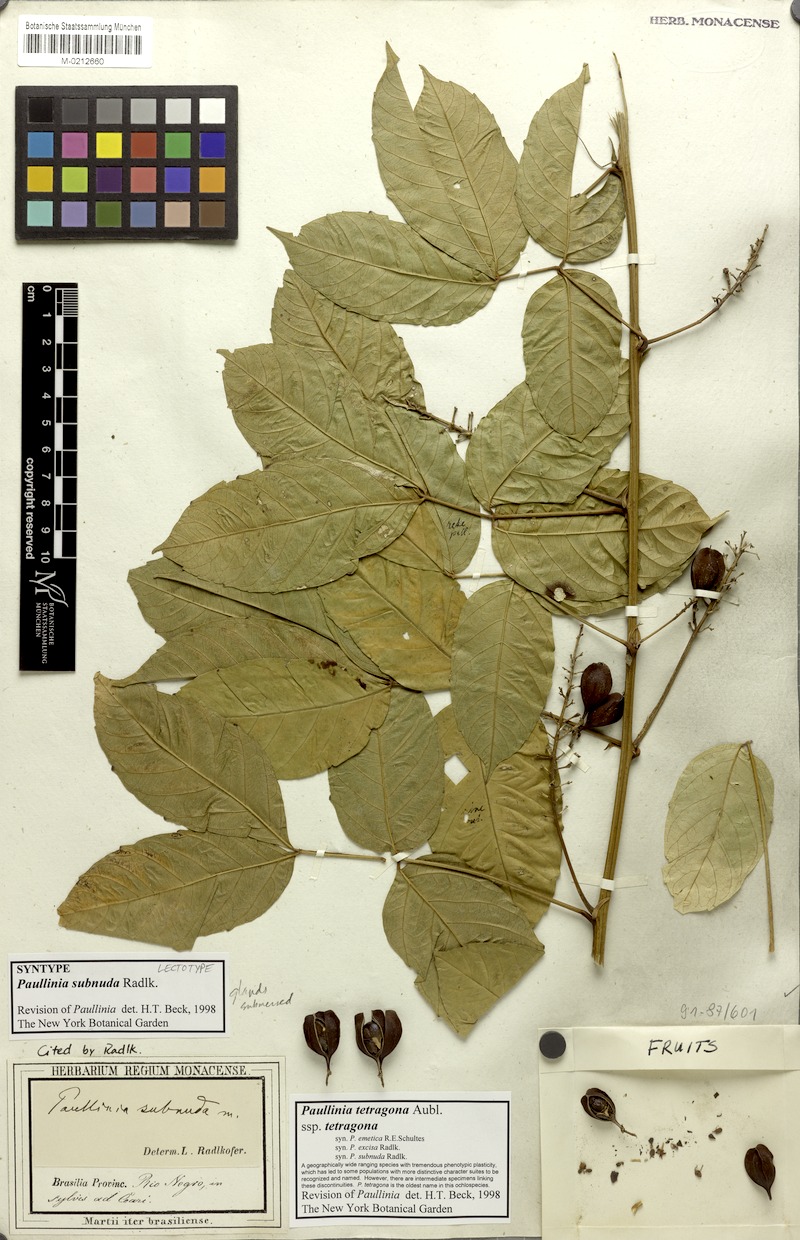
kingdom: Plantae
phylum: Tracheophyta
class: Magnoliopsida
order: Sapindales
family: Sapindaceae
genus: Paullinia
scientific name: Paullinia tetragona
